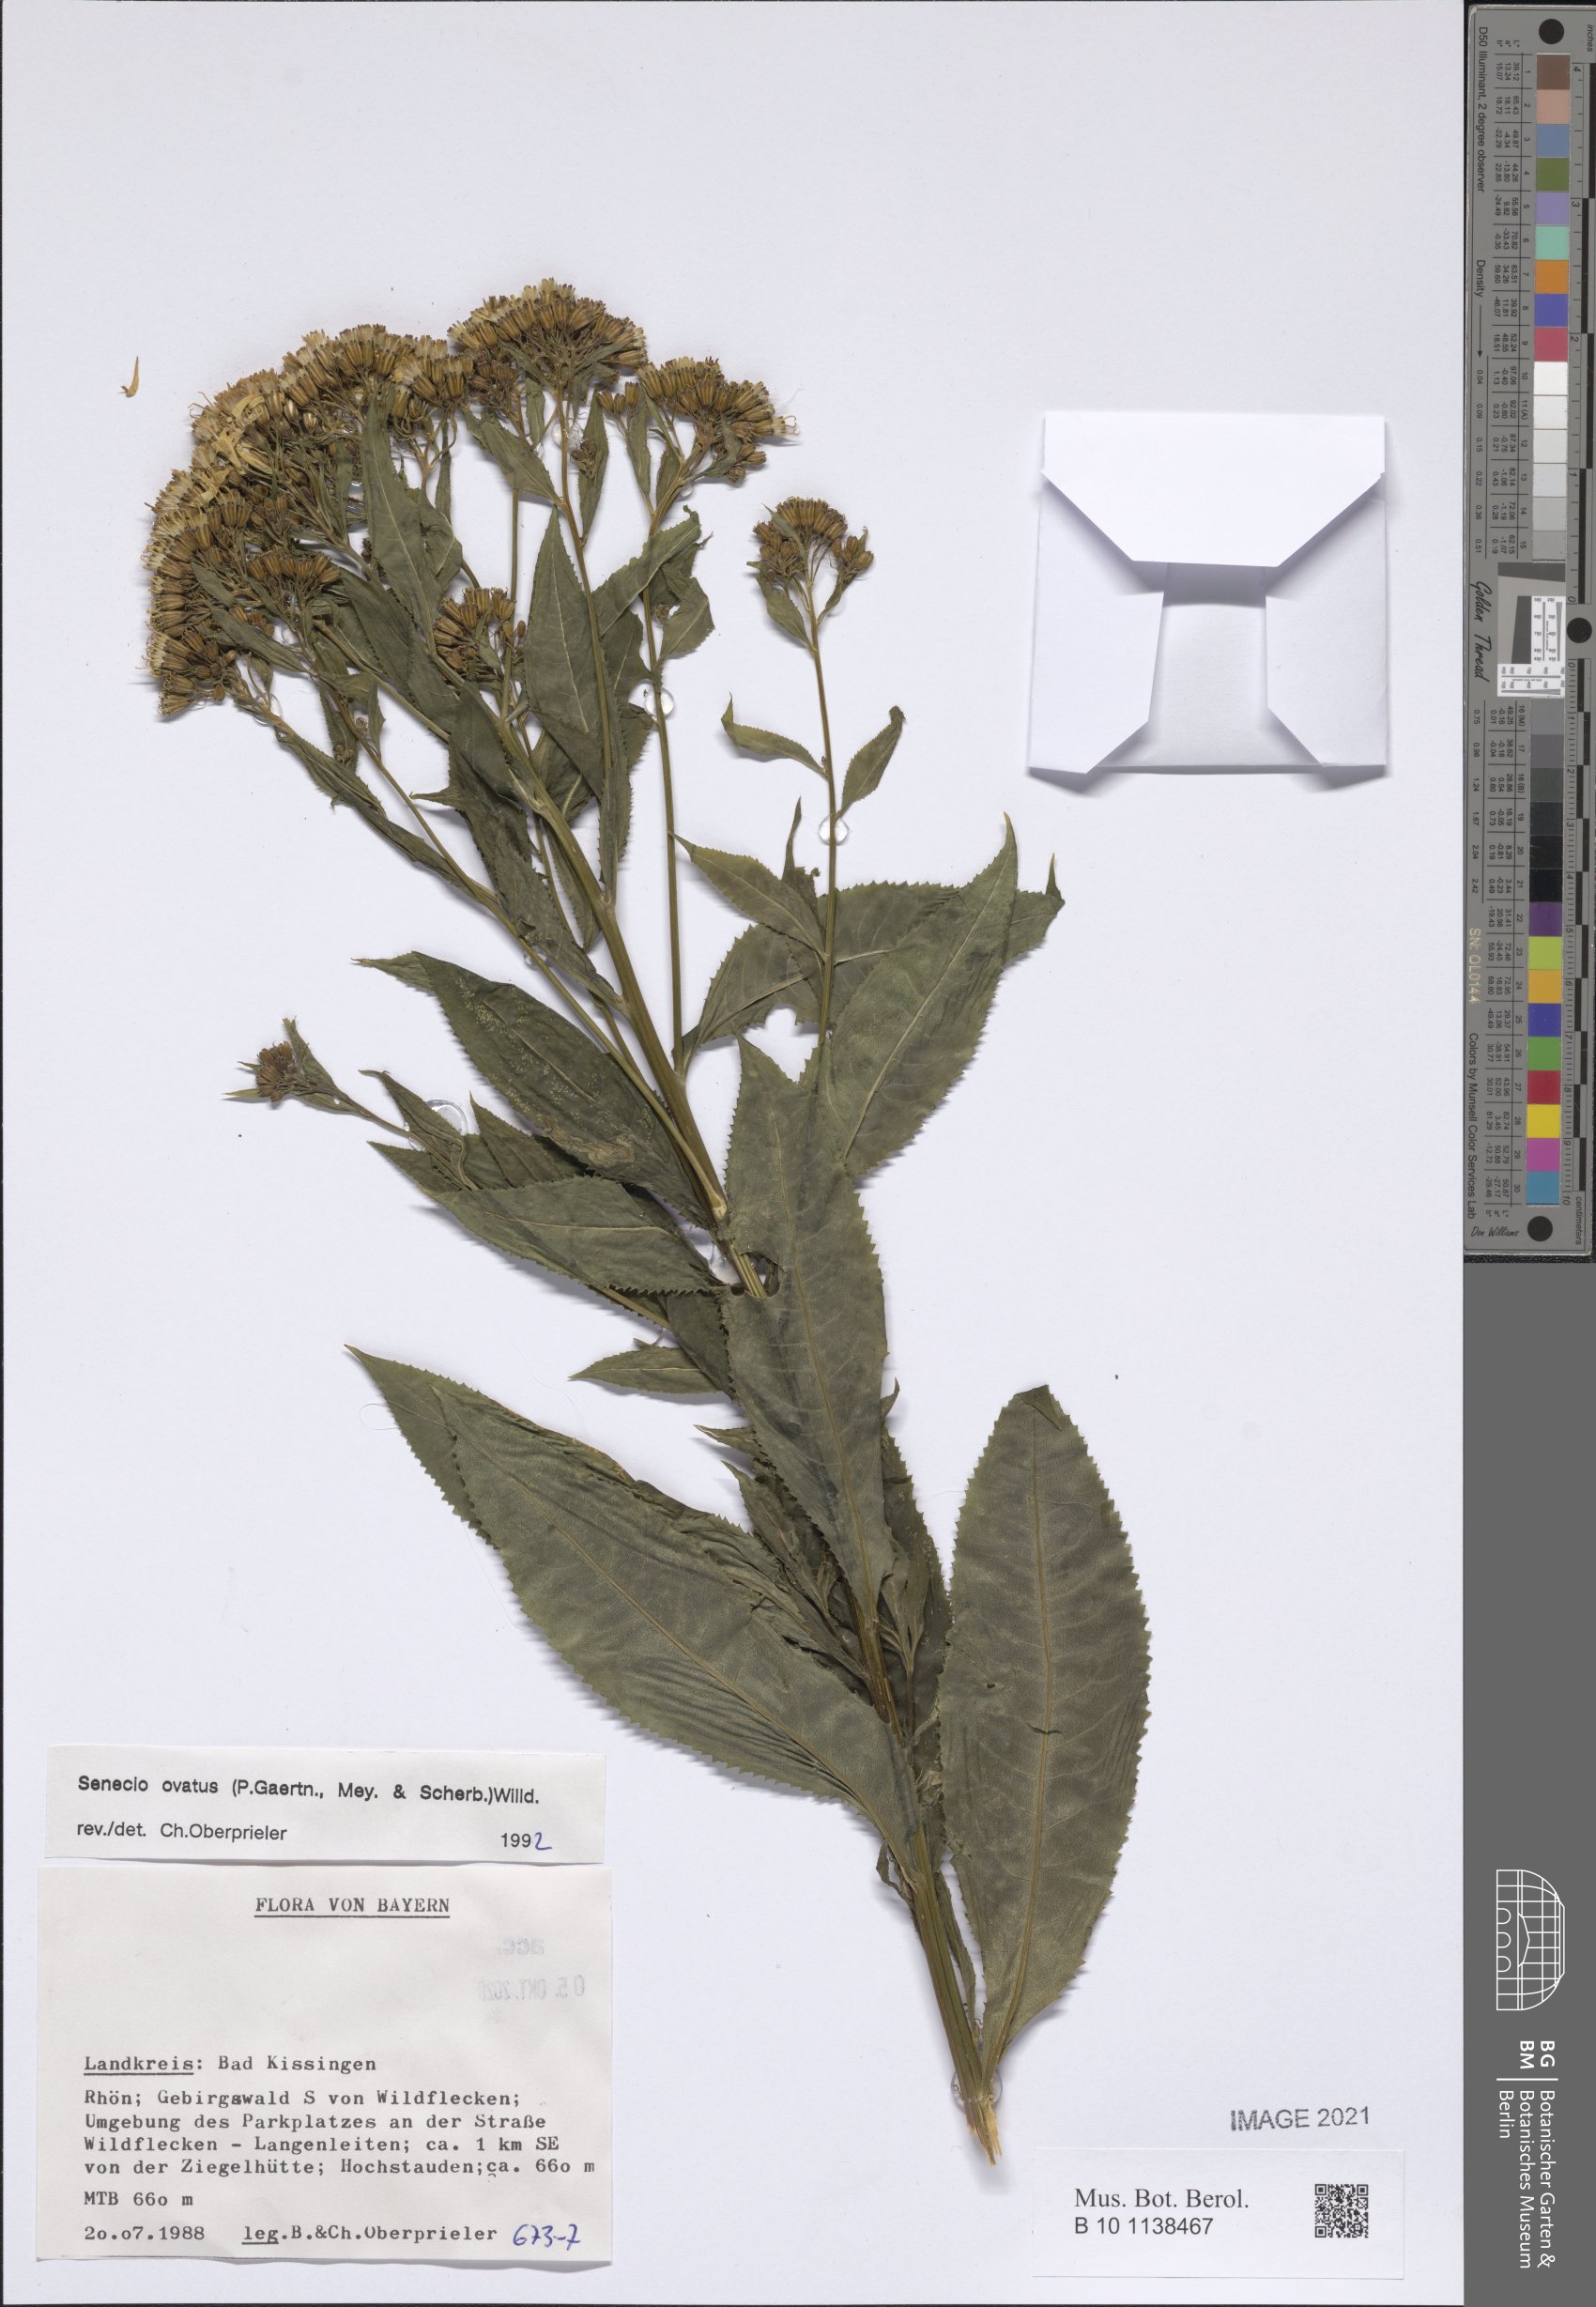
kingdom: Plantae
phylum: Tracheophyta
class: Magnoliopsida
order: Asterales
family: Asteraceae
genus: Senecio
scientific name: Senecio ovatus
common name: Wood ragwort
